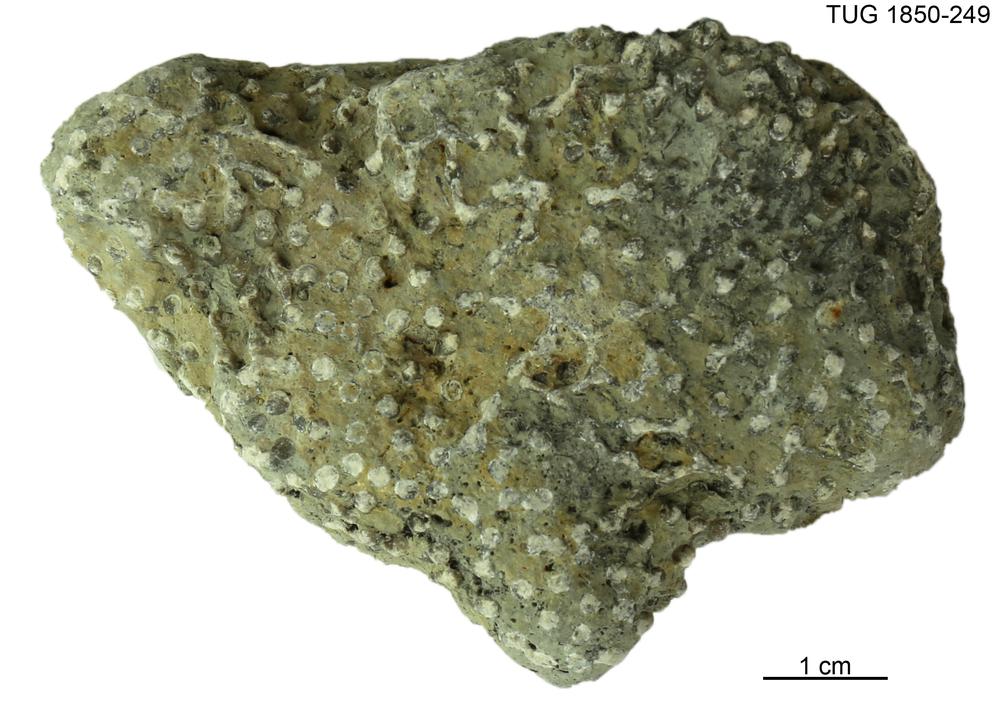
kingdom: Animalia
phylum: Cnidaria
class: Anthozoa
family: Syringoporidae
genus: Syringopora
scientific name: Syringopora
